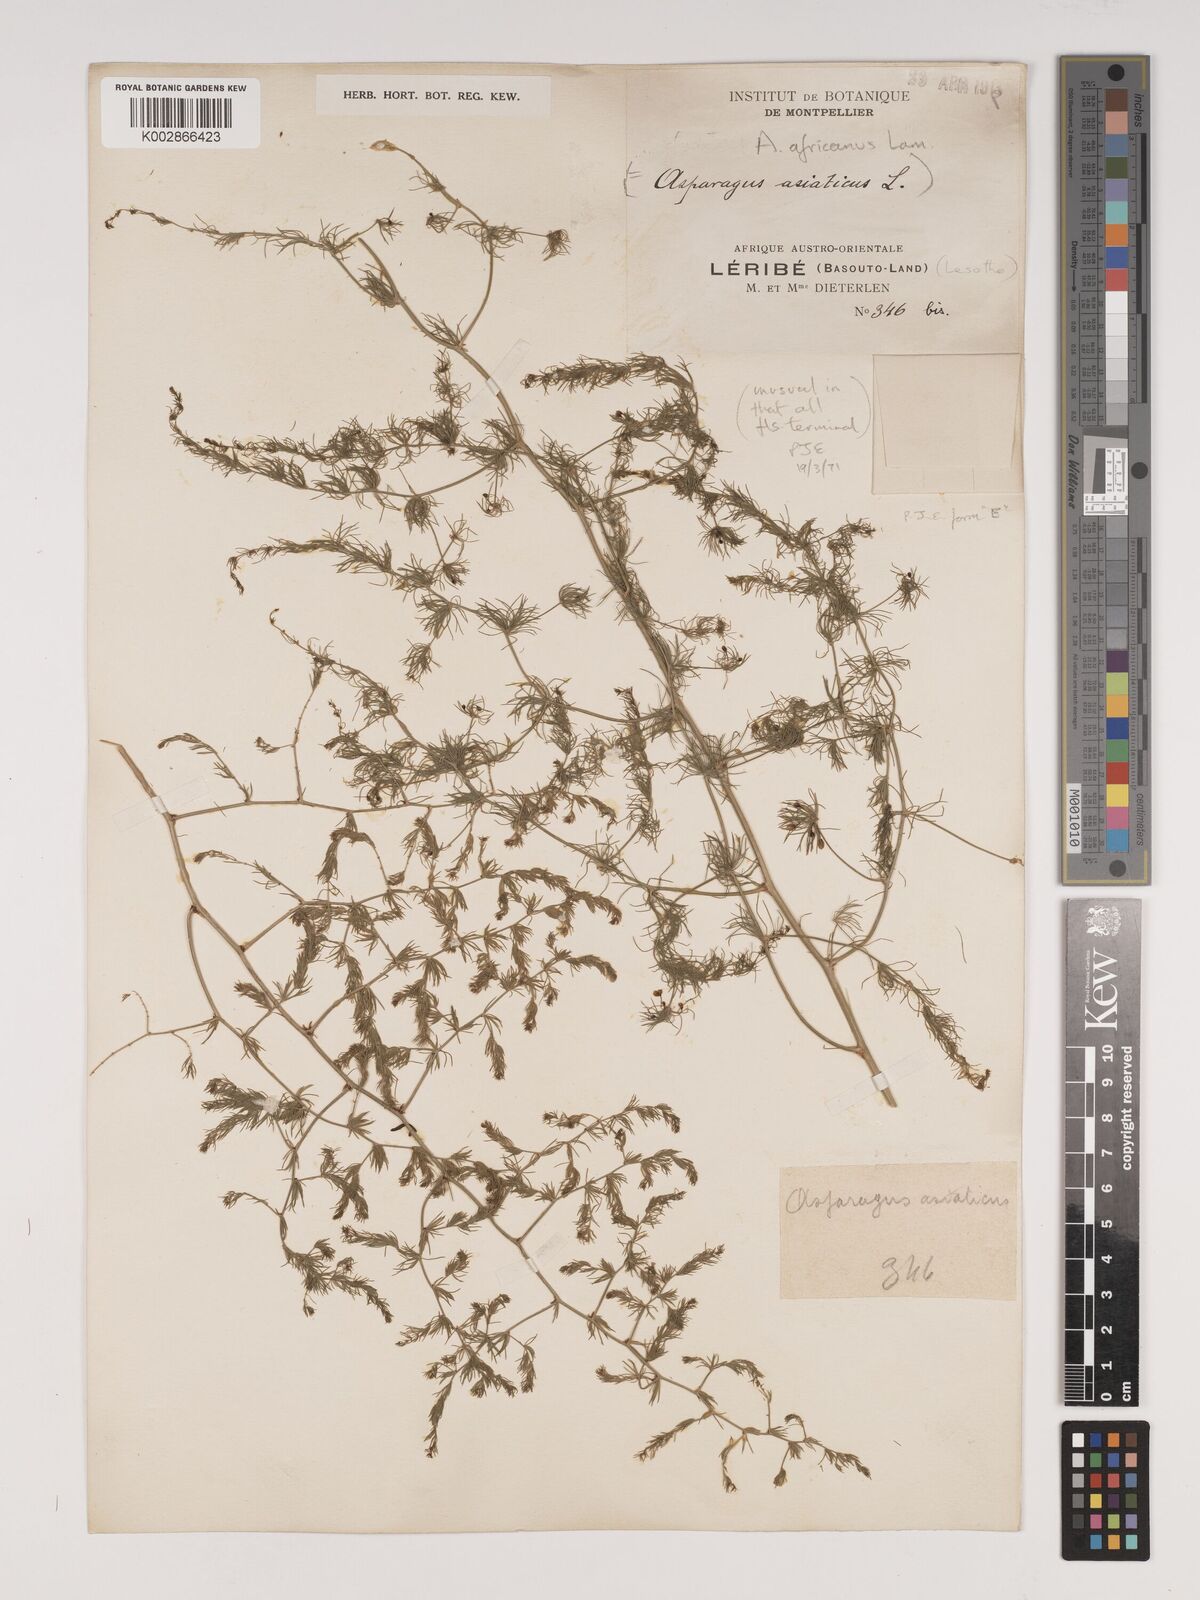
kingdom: Plantae
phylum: Tracheophyta
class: Liliopsida
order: Asparagales
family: Asparagaceae
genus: Asparagus
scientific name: Asparagus africanus
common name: Asparagus-fern
